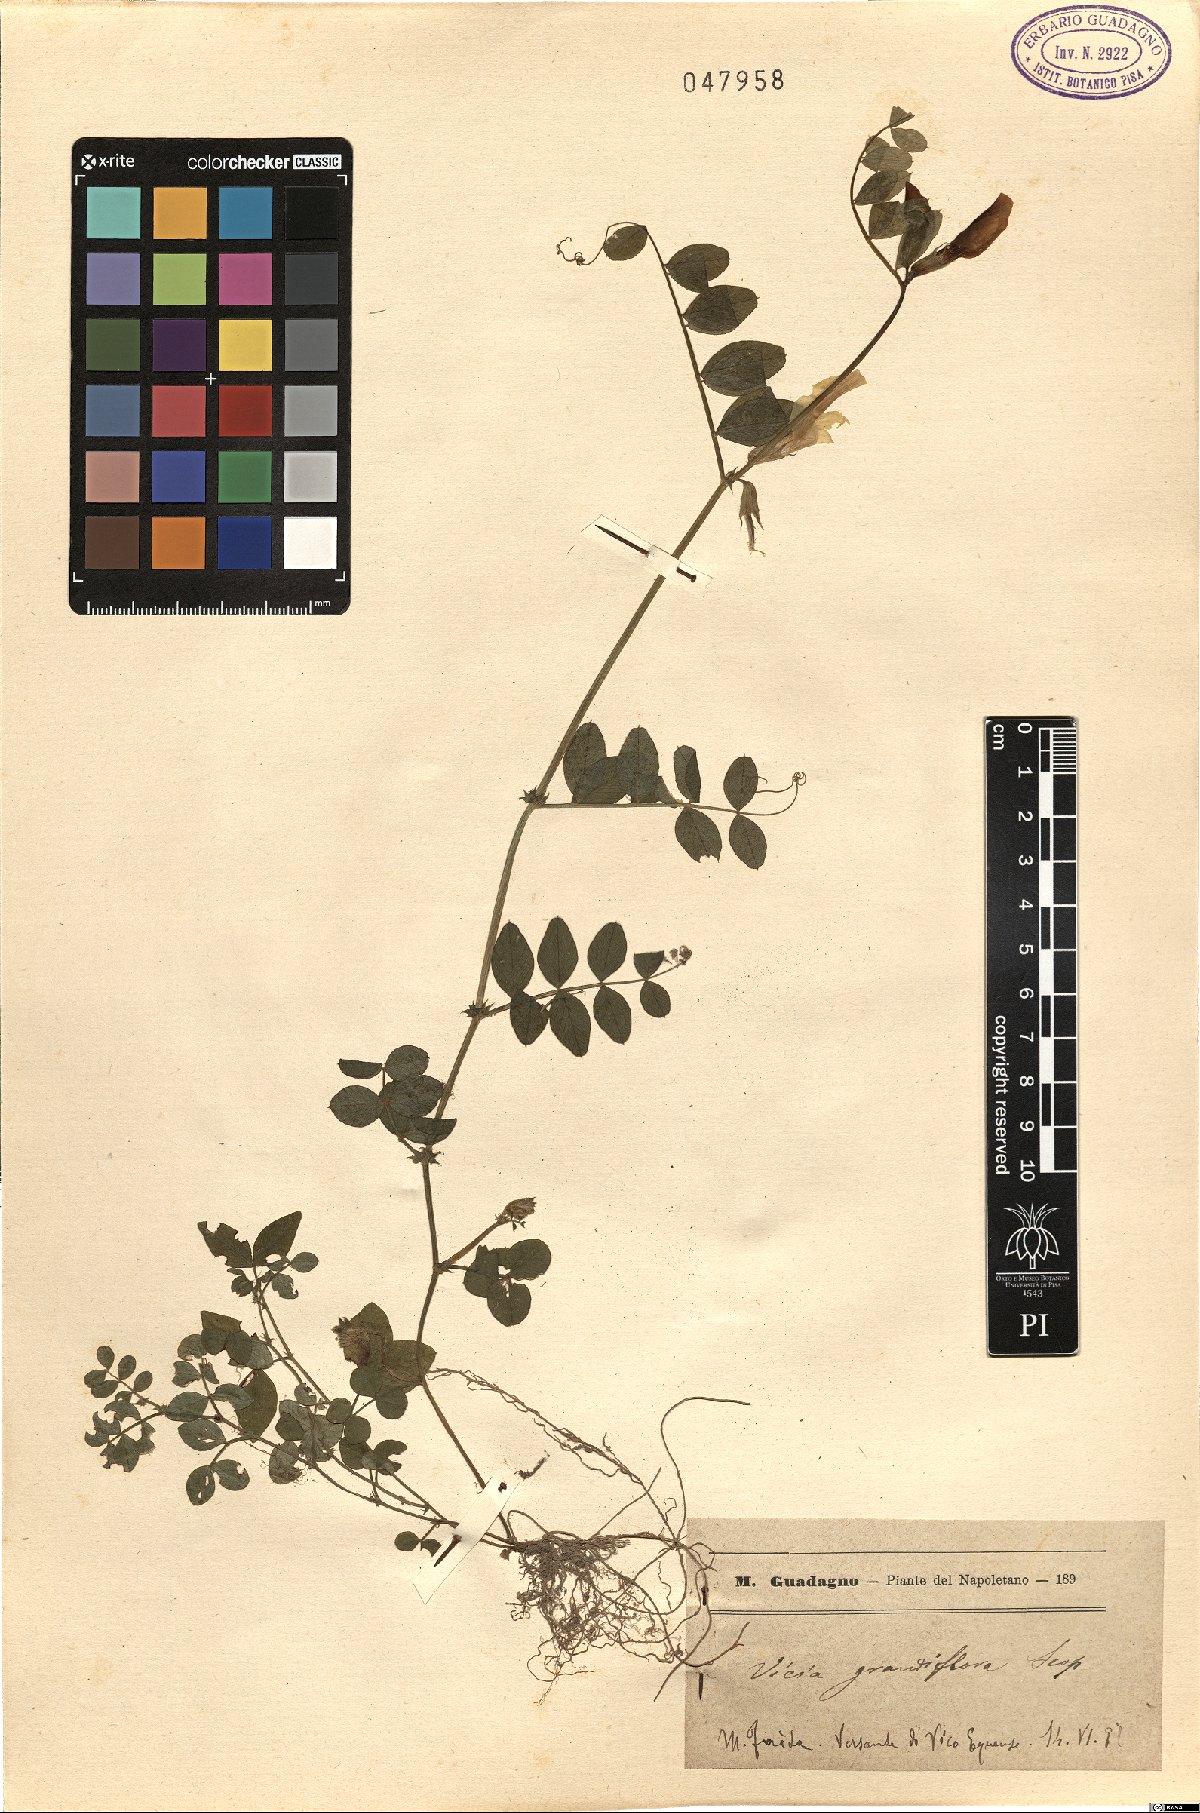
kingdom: Plantae
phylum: Tracheophyta
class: Magnoliopsida
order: Fabales
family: Fabaceae
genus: Vicia
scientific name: Vicia grandiflora
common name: Large yellow vetch
